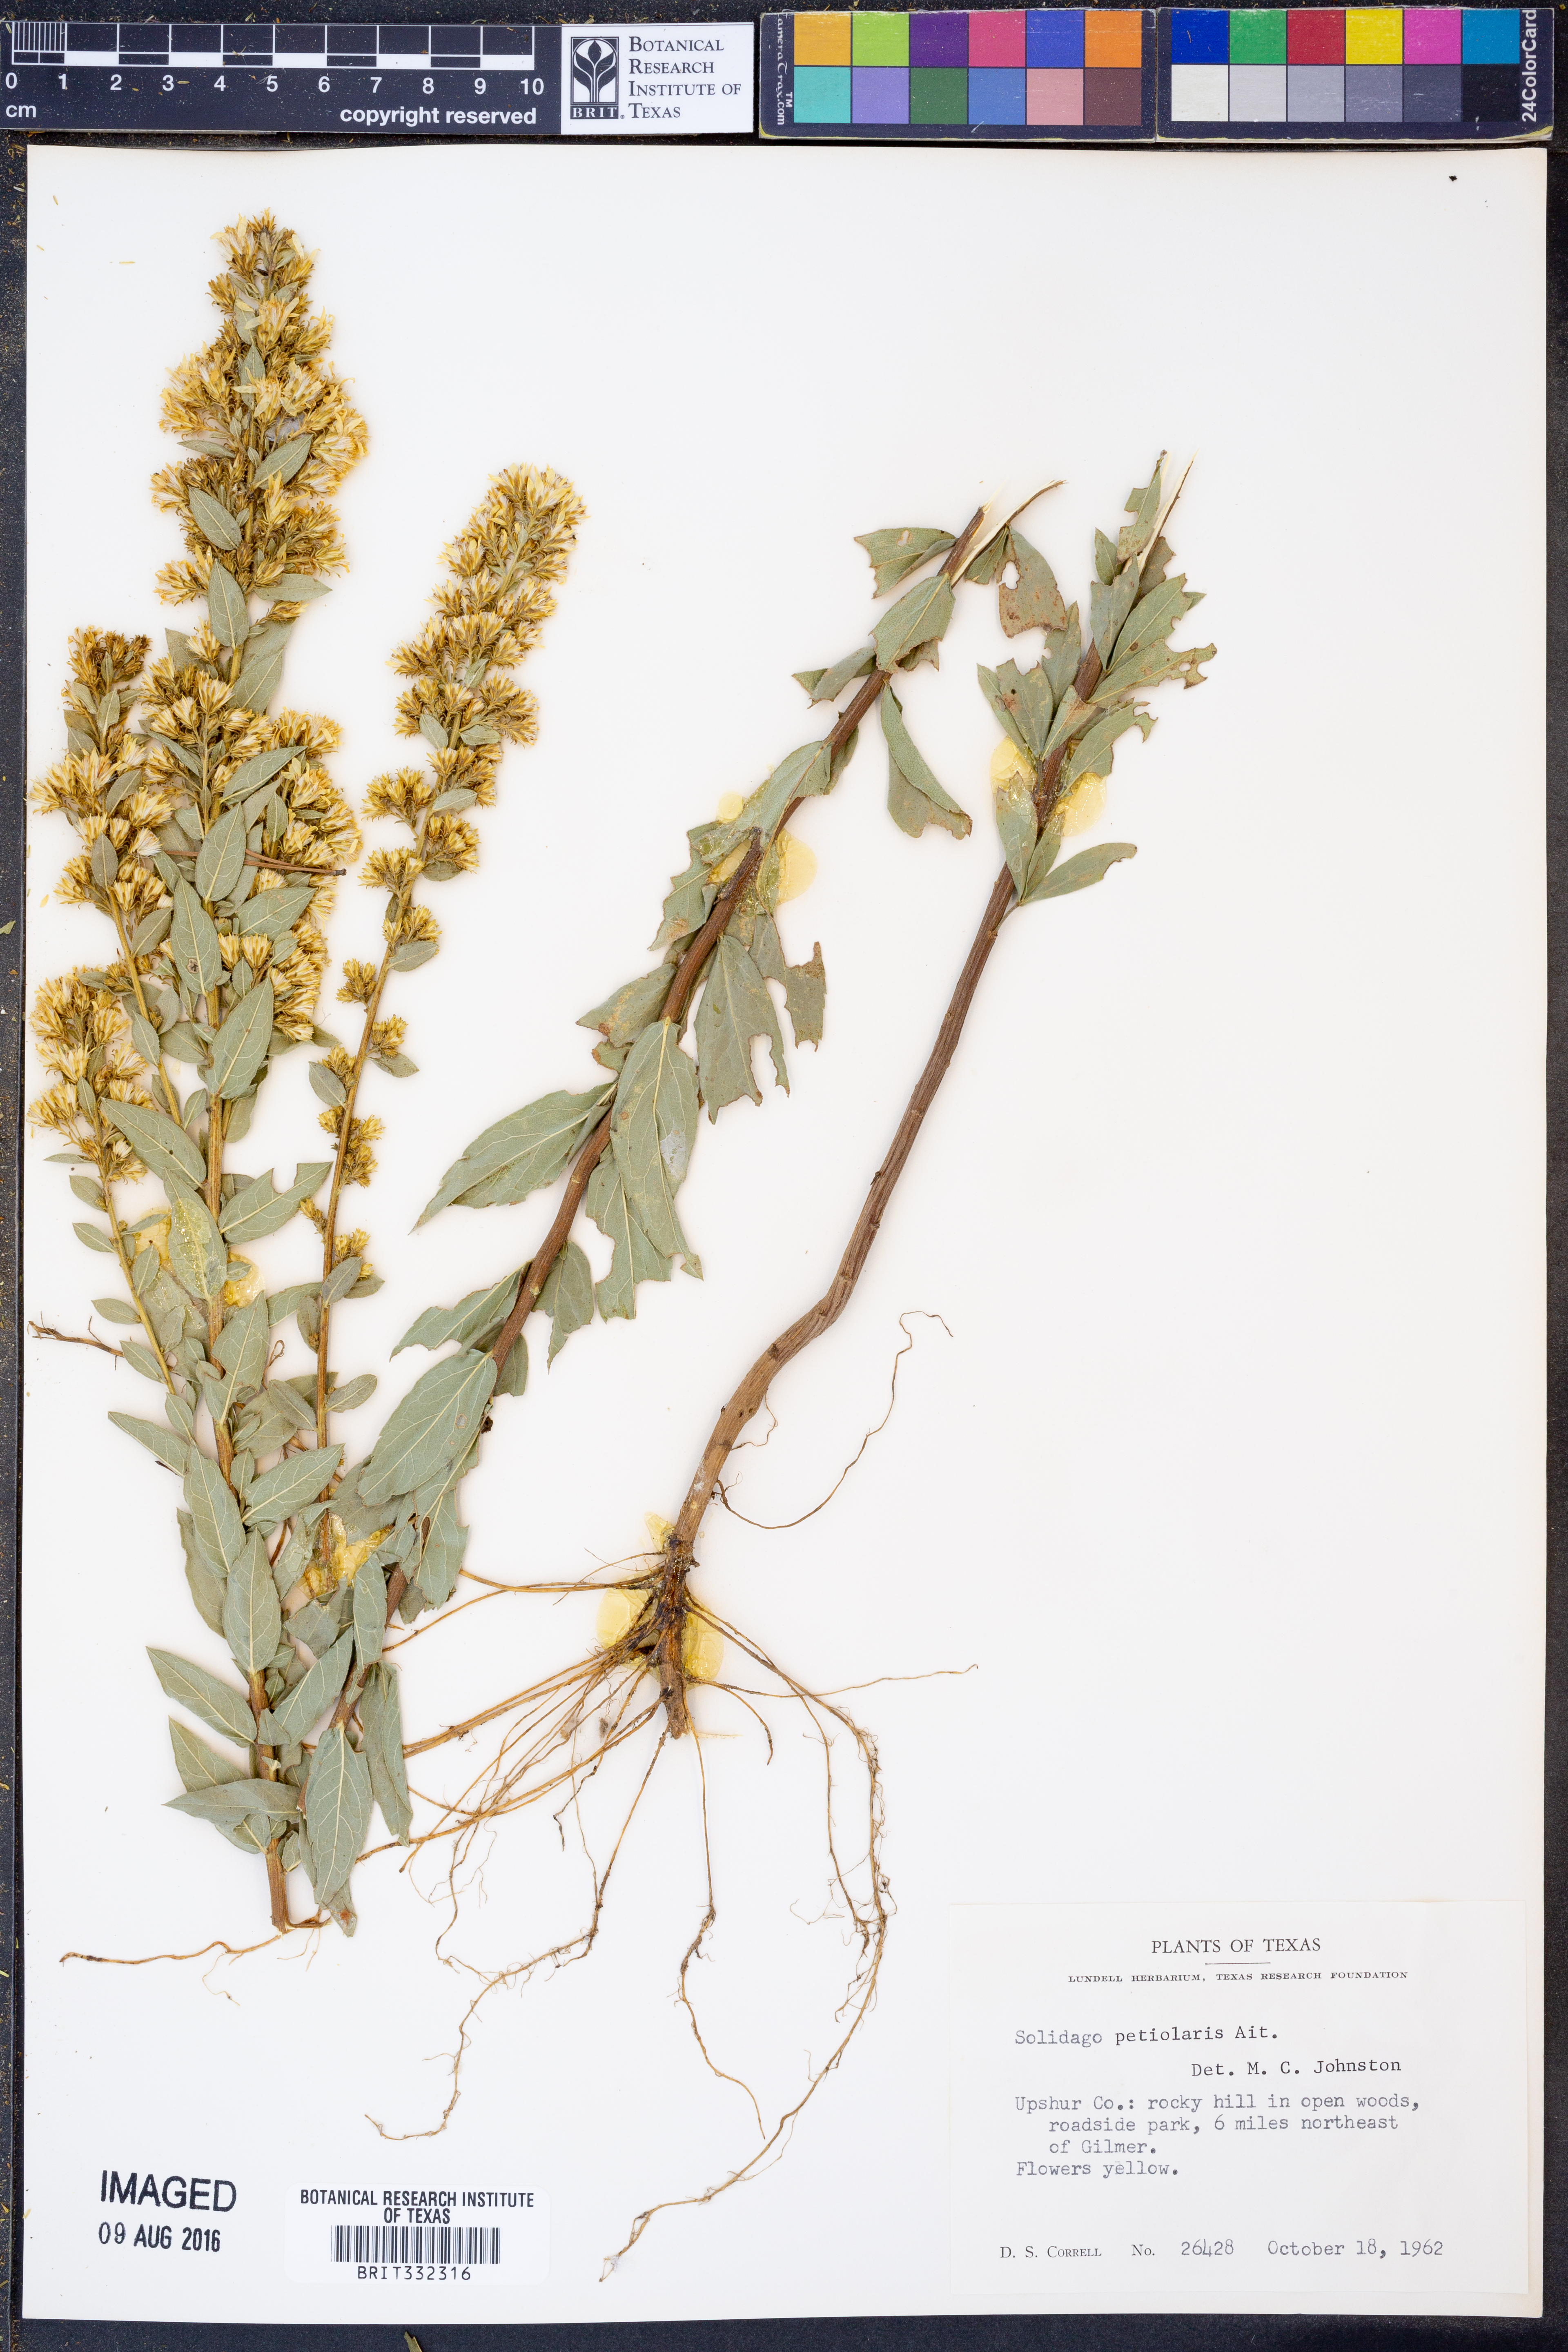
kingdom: Plantae
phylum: Tracheophyta
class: Magnoliopsida
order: Asterales
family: Asteraceae
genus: Solidago
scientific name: Solidago petiolaris
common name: Downy ragged goldenrod
